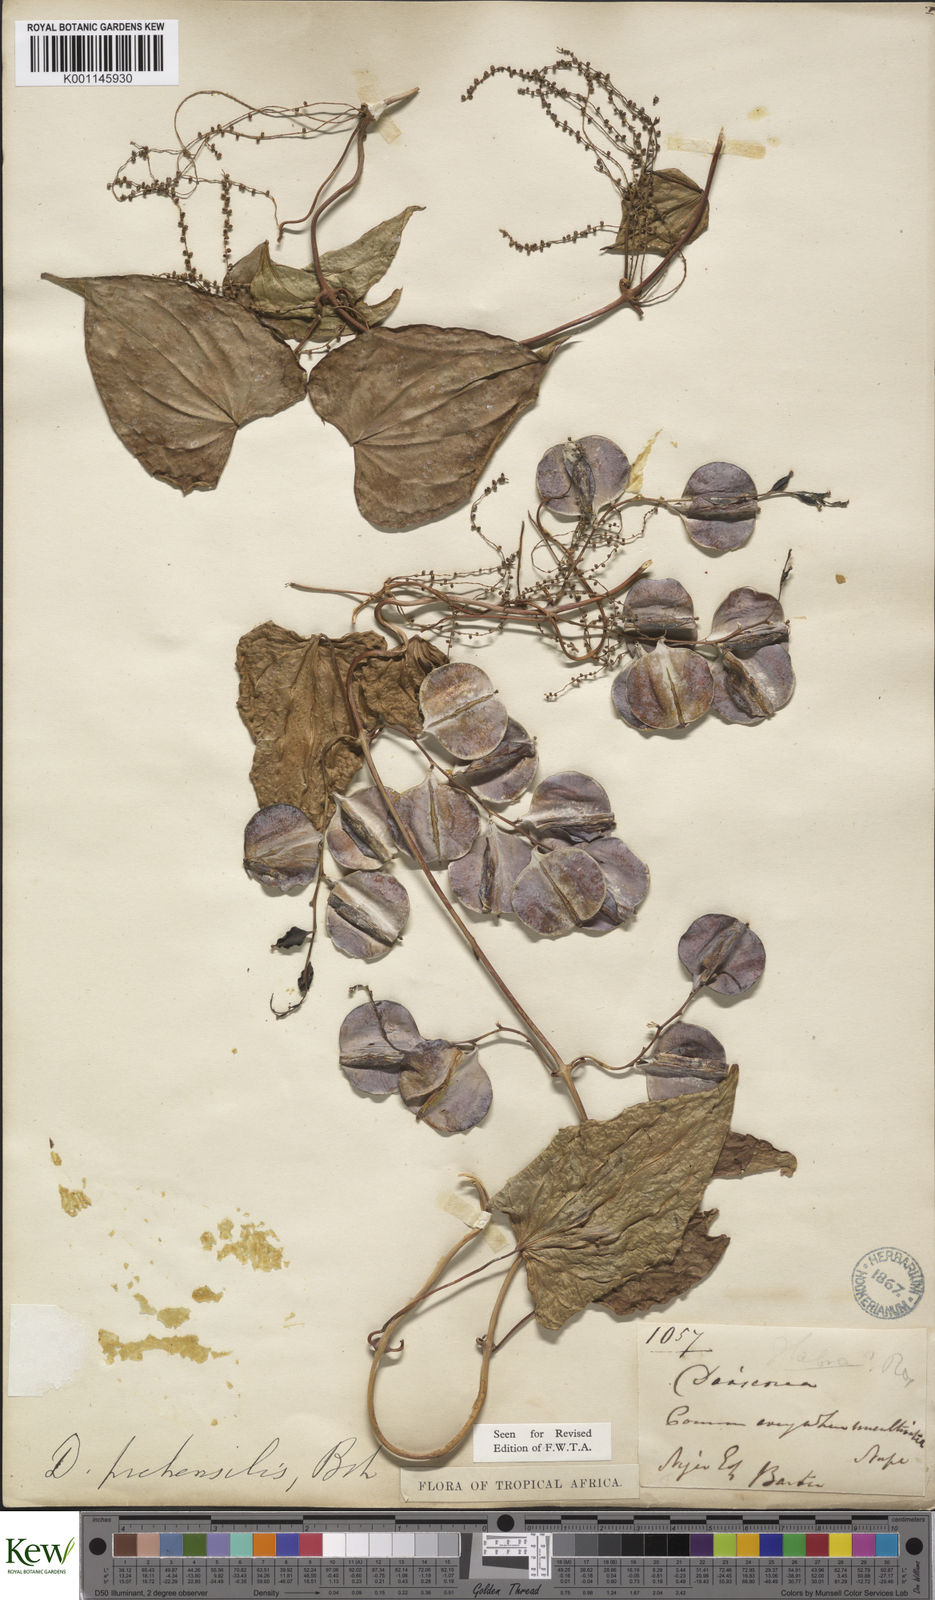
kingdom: Plantae
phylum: Tracheophyta
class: Liliopsida
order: Dioscoreales
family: Dioscoreaceae
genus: Dioscorea
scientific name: Dioscorea preussii
